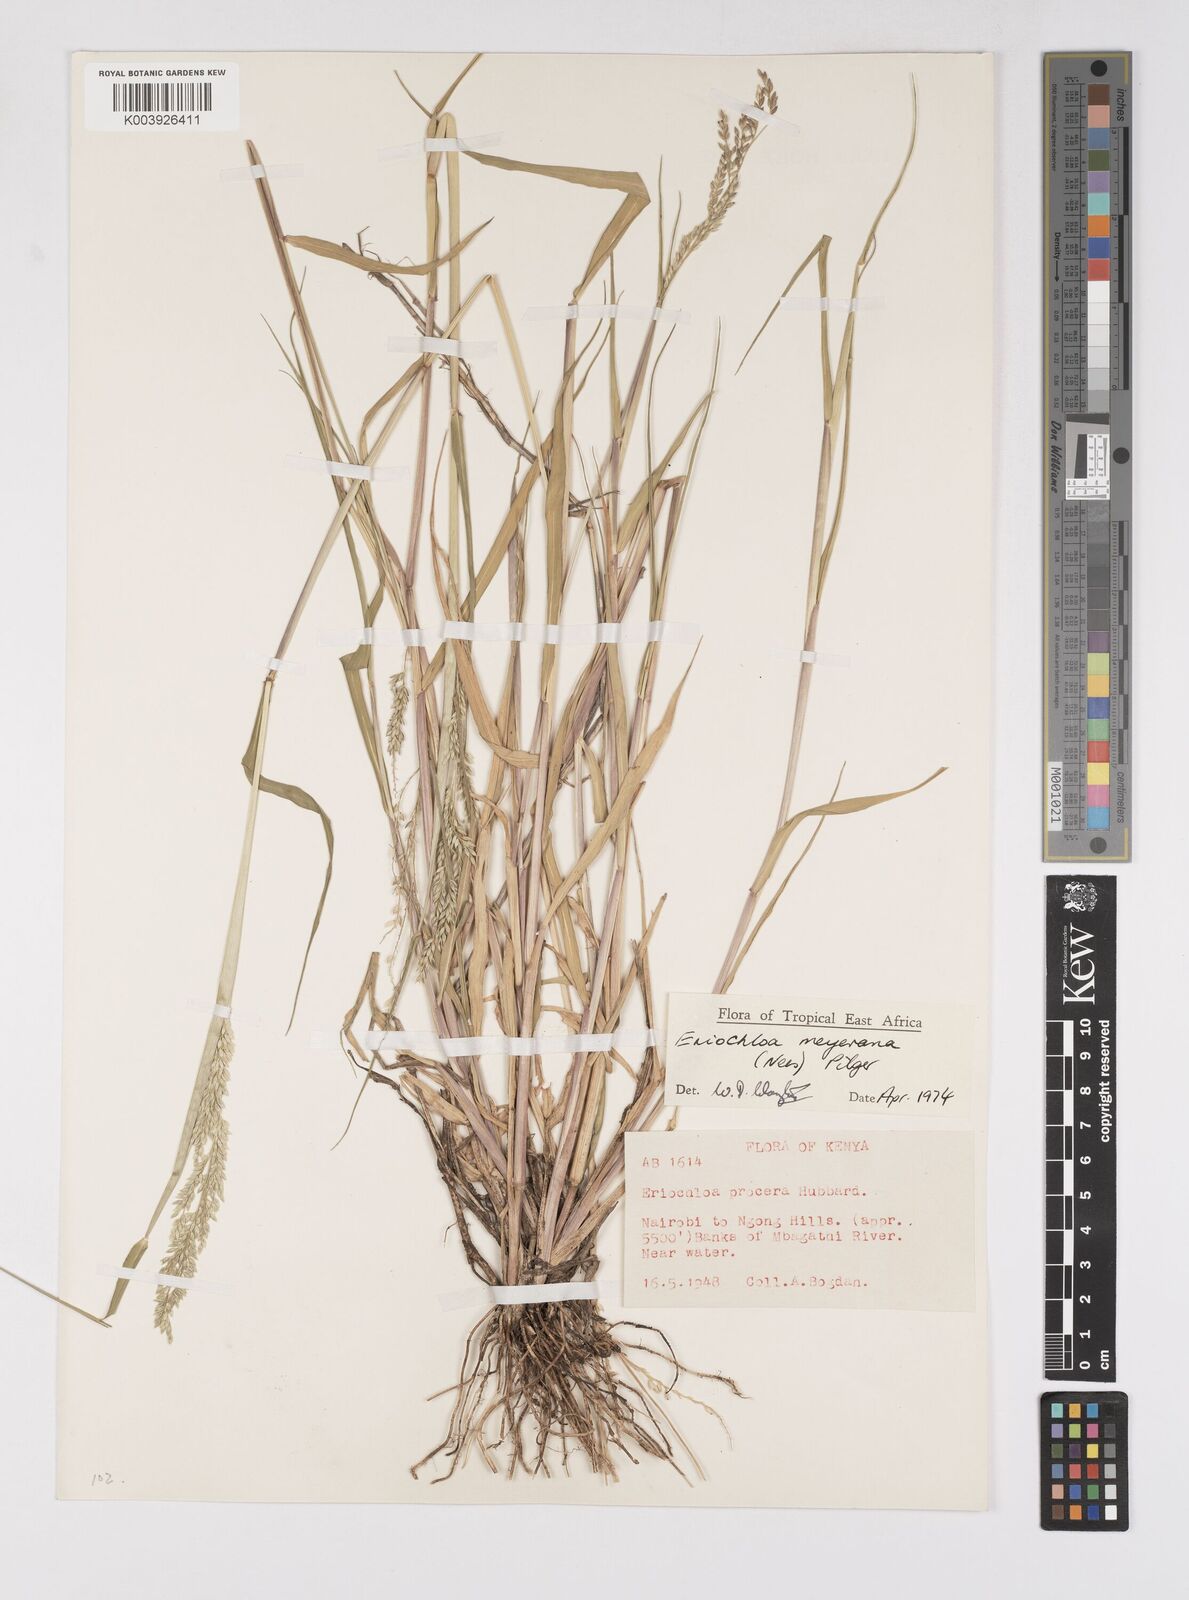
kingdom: Plantae
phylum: Tracheophyta
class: Liliopsida
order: Poales
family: Poaceae
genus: Eriochloa
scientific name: Eriochloa meyeriana
